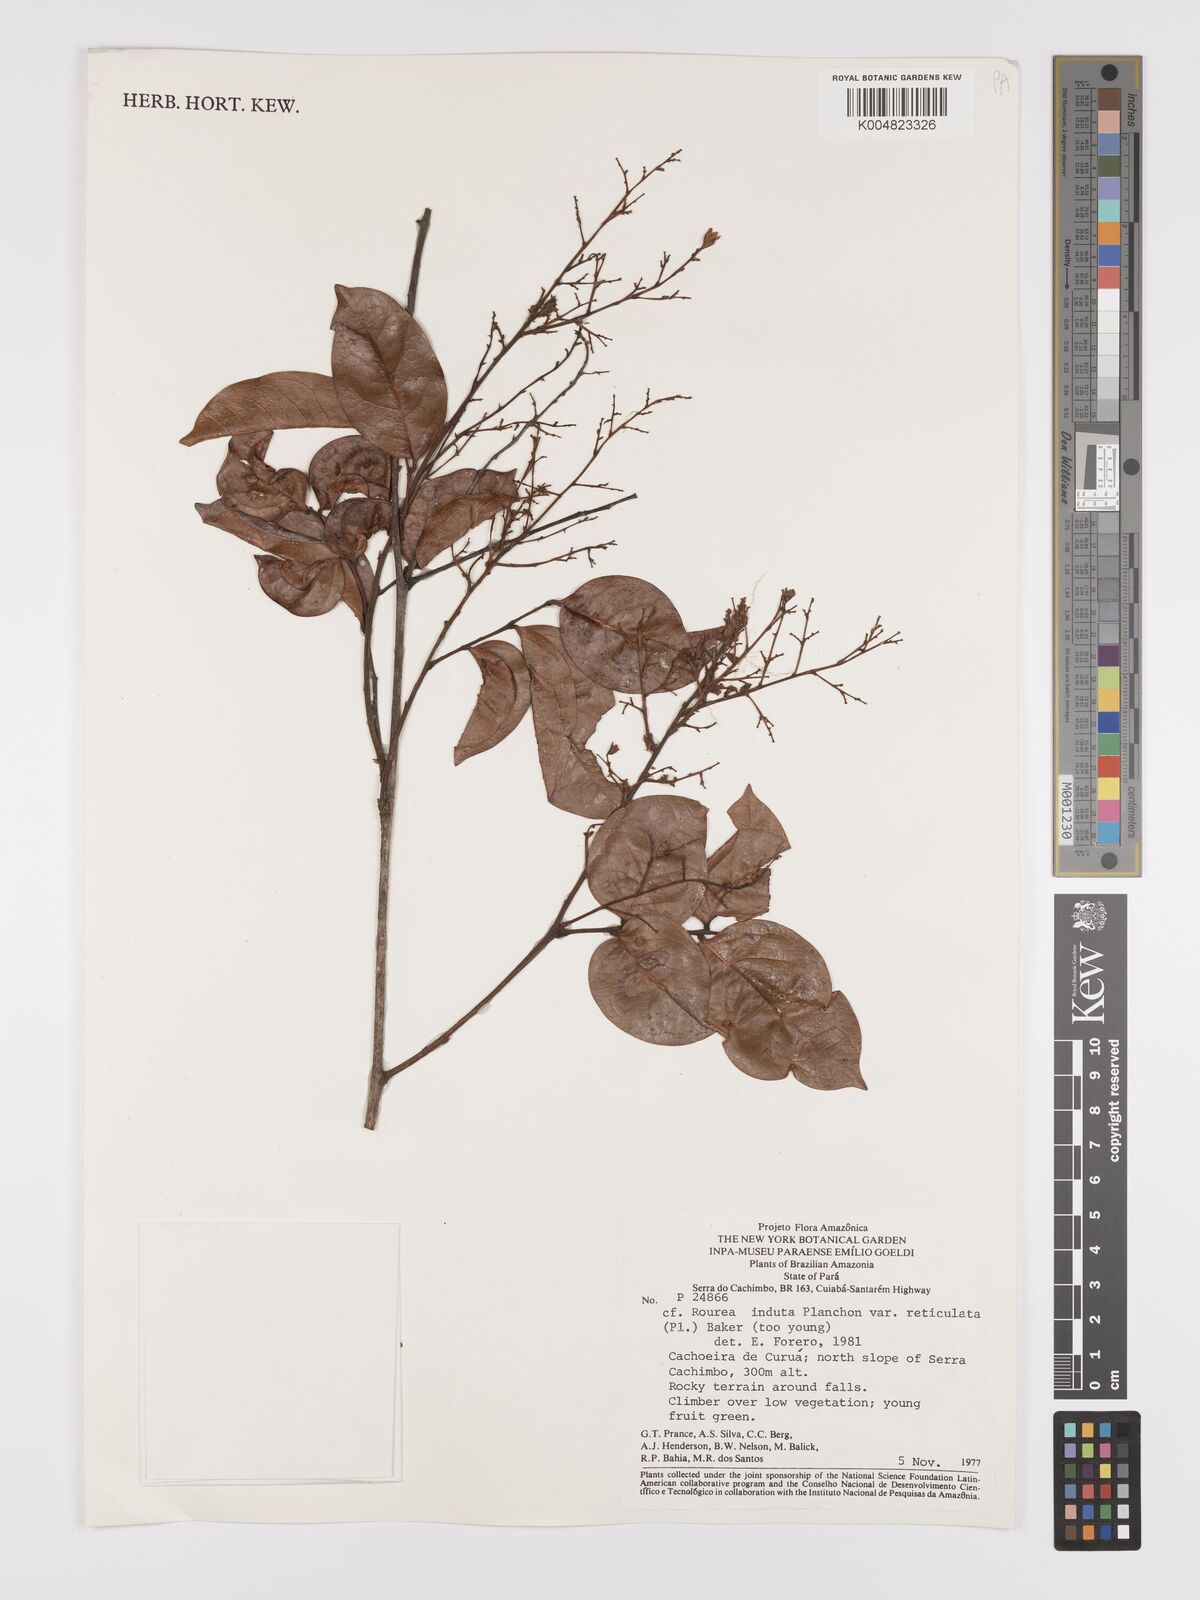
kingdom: Plantae
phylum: Tracheophyta
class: Magnoliopsida
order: Oxalidales
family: Connaraceae
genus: Rourea
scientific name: Rourea induta
